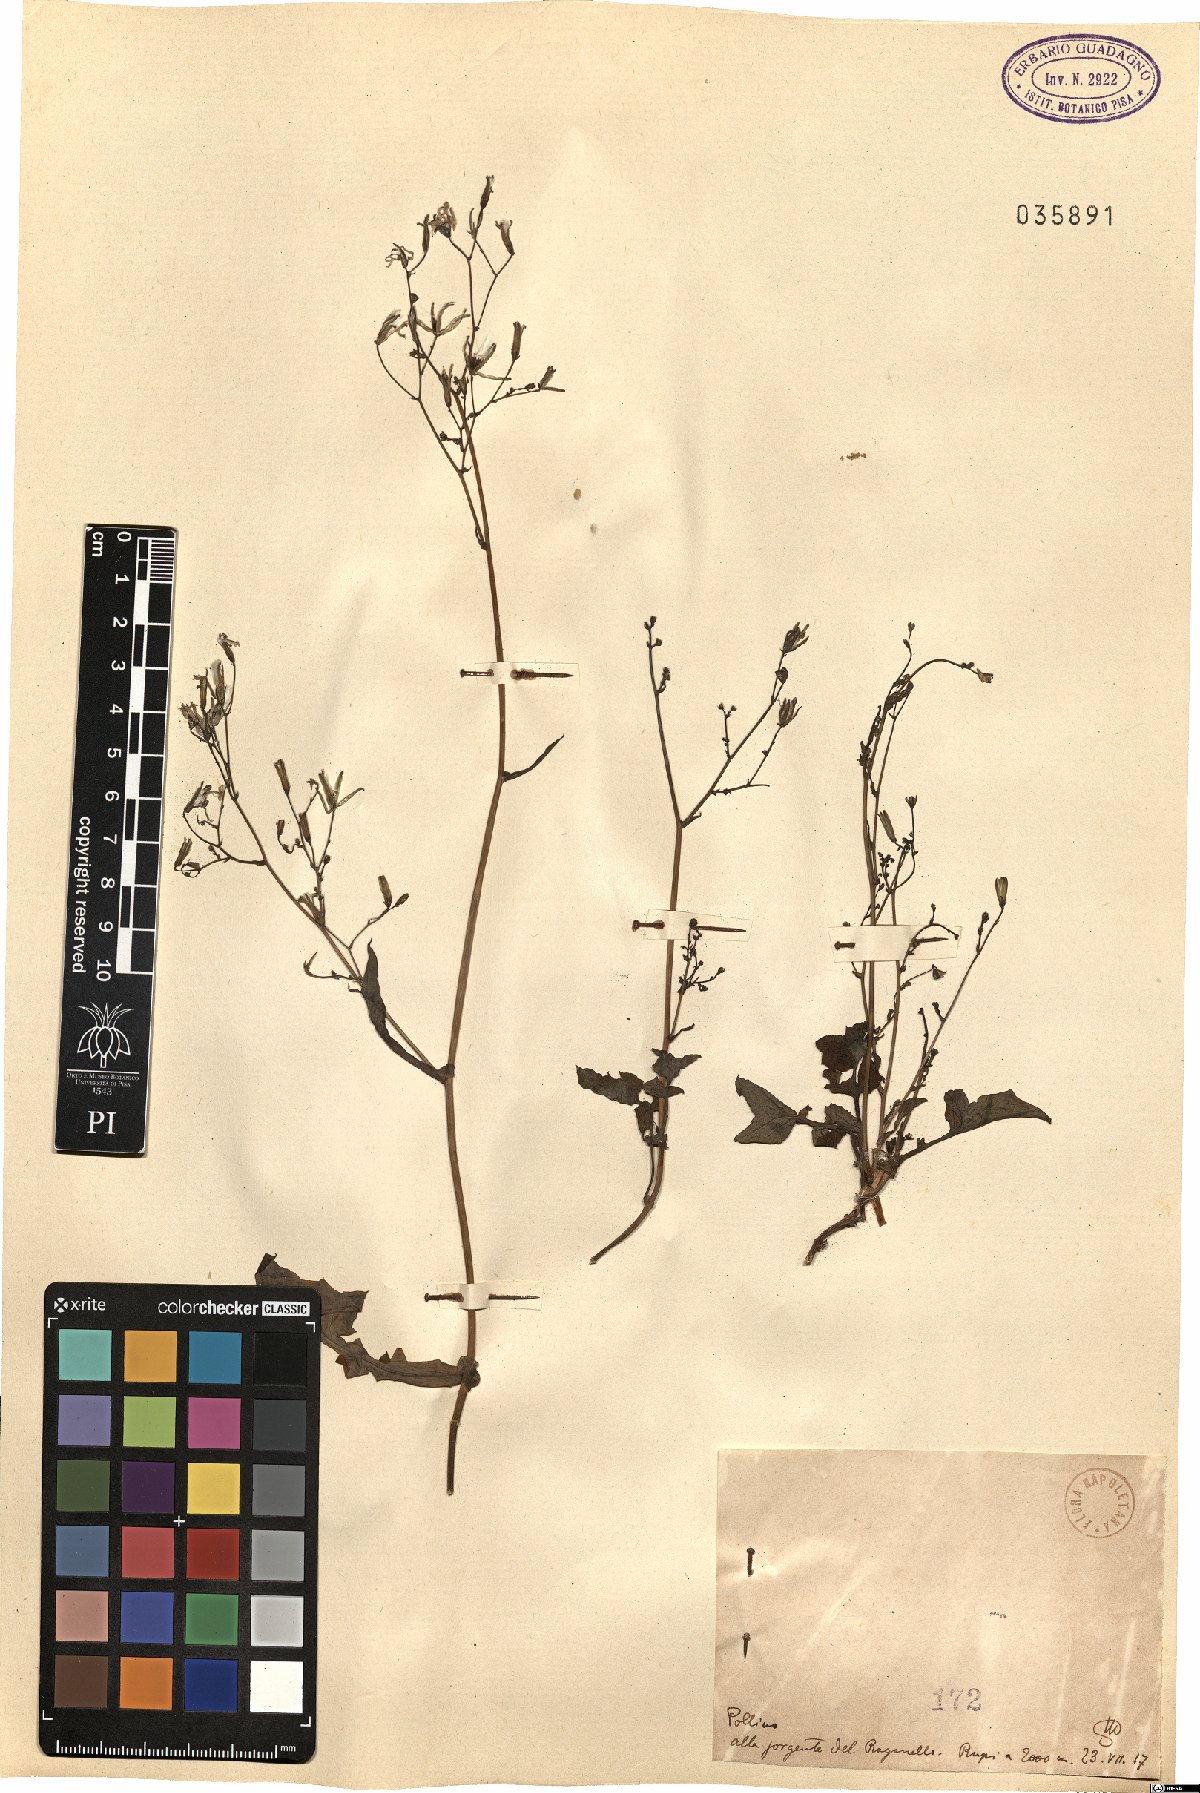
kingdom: Plantae
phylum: Tracheophyta
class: Magnoliopsida
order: Asterales
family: Asteraceae
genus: Lactuca
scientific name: Lactuca
